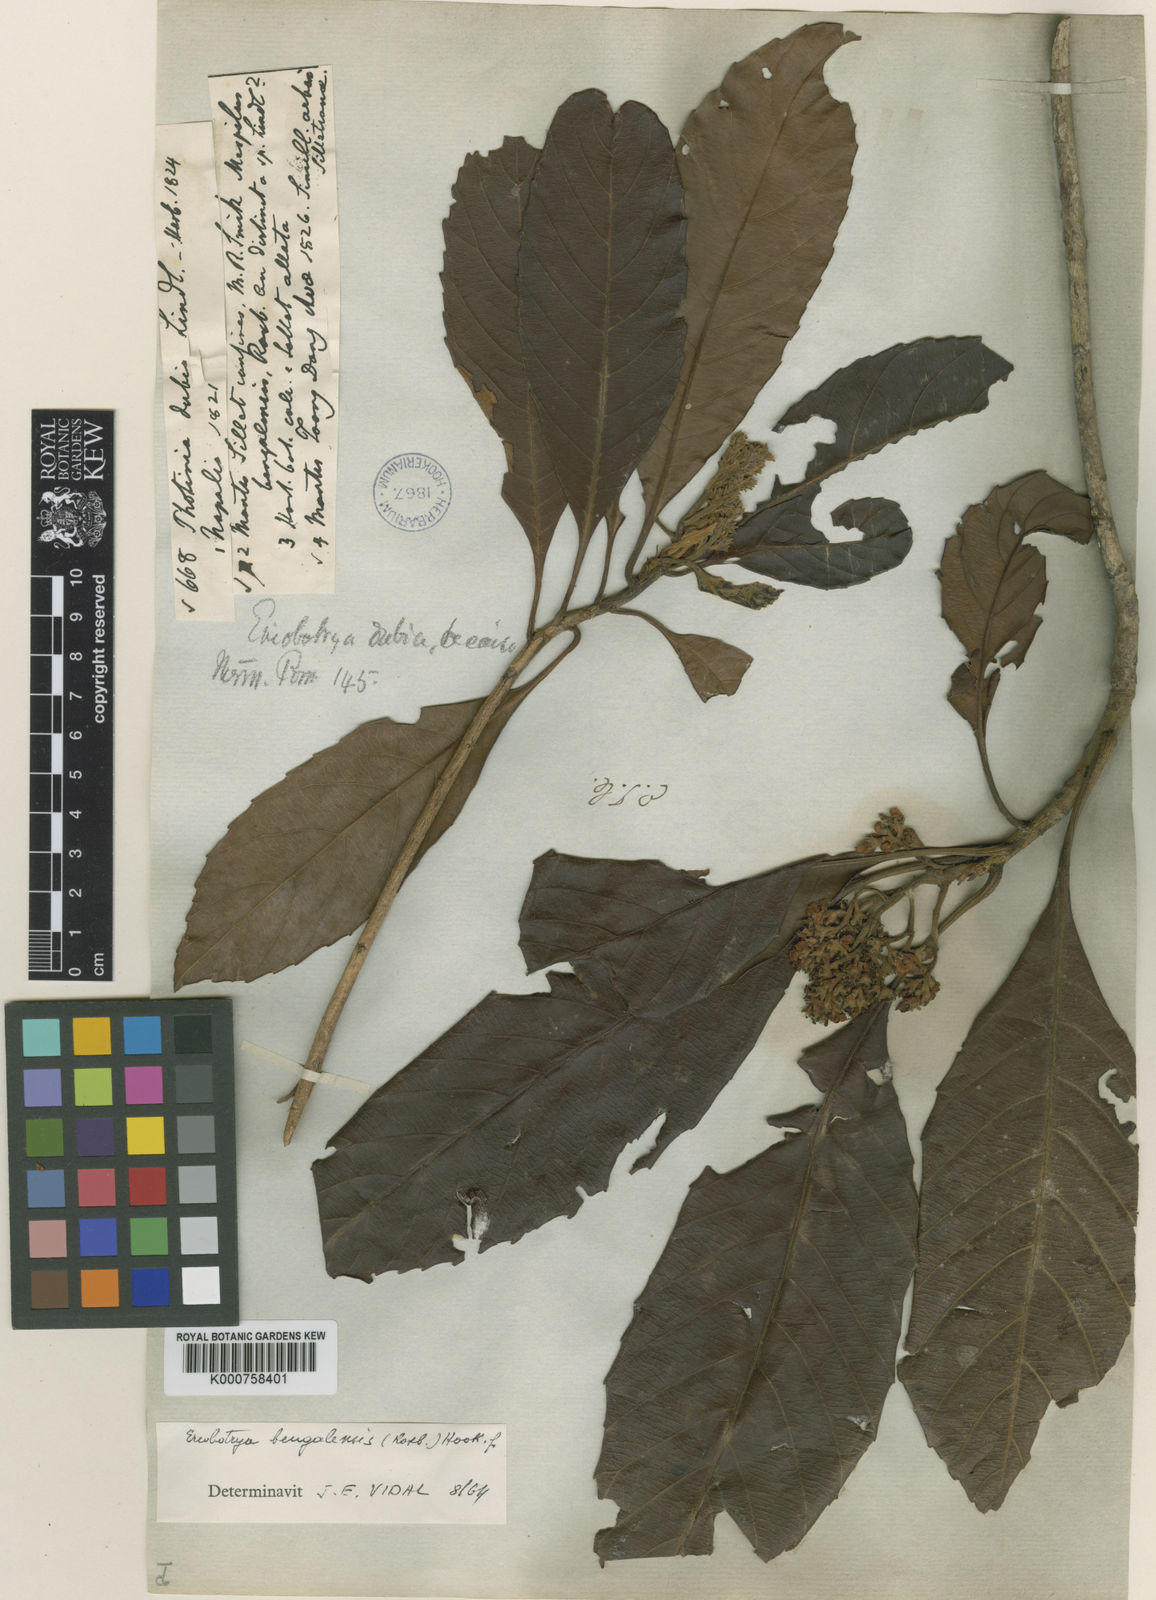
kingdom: Plantae
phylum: Tracheophyta
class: Magnoliopsida
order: Rosales
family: Rosaceae
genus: Rhaphiolepis
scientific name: Rhaphiolepis
